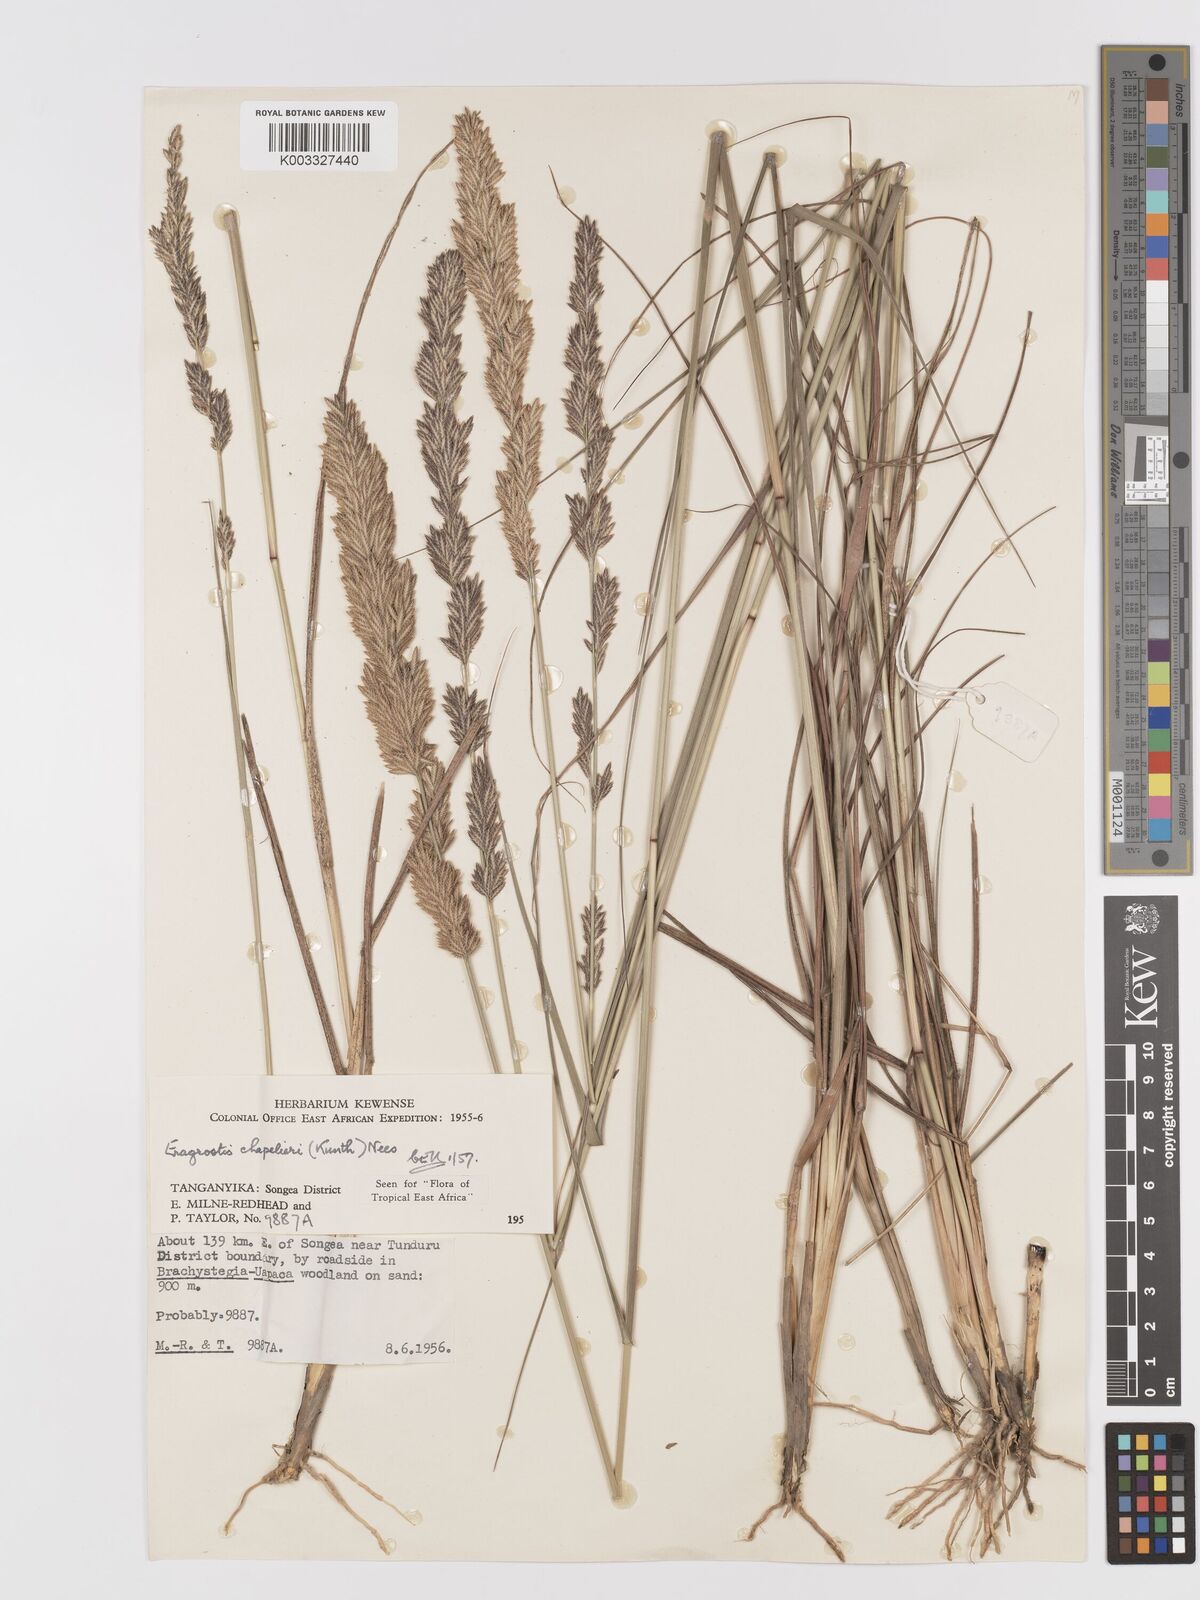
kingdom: Plantae
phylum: Tracheophyta
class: Liliopsida
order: Poales
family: Poaceae
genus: Eragrostis
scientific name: Eragrostis chapelieri
